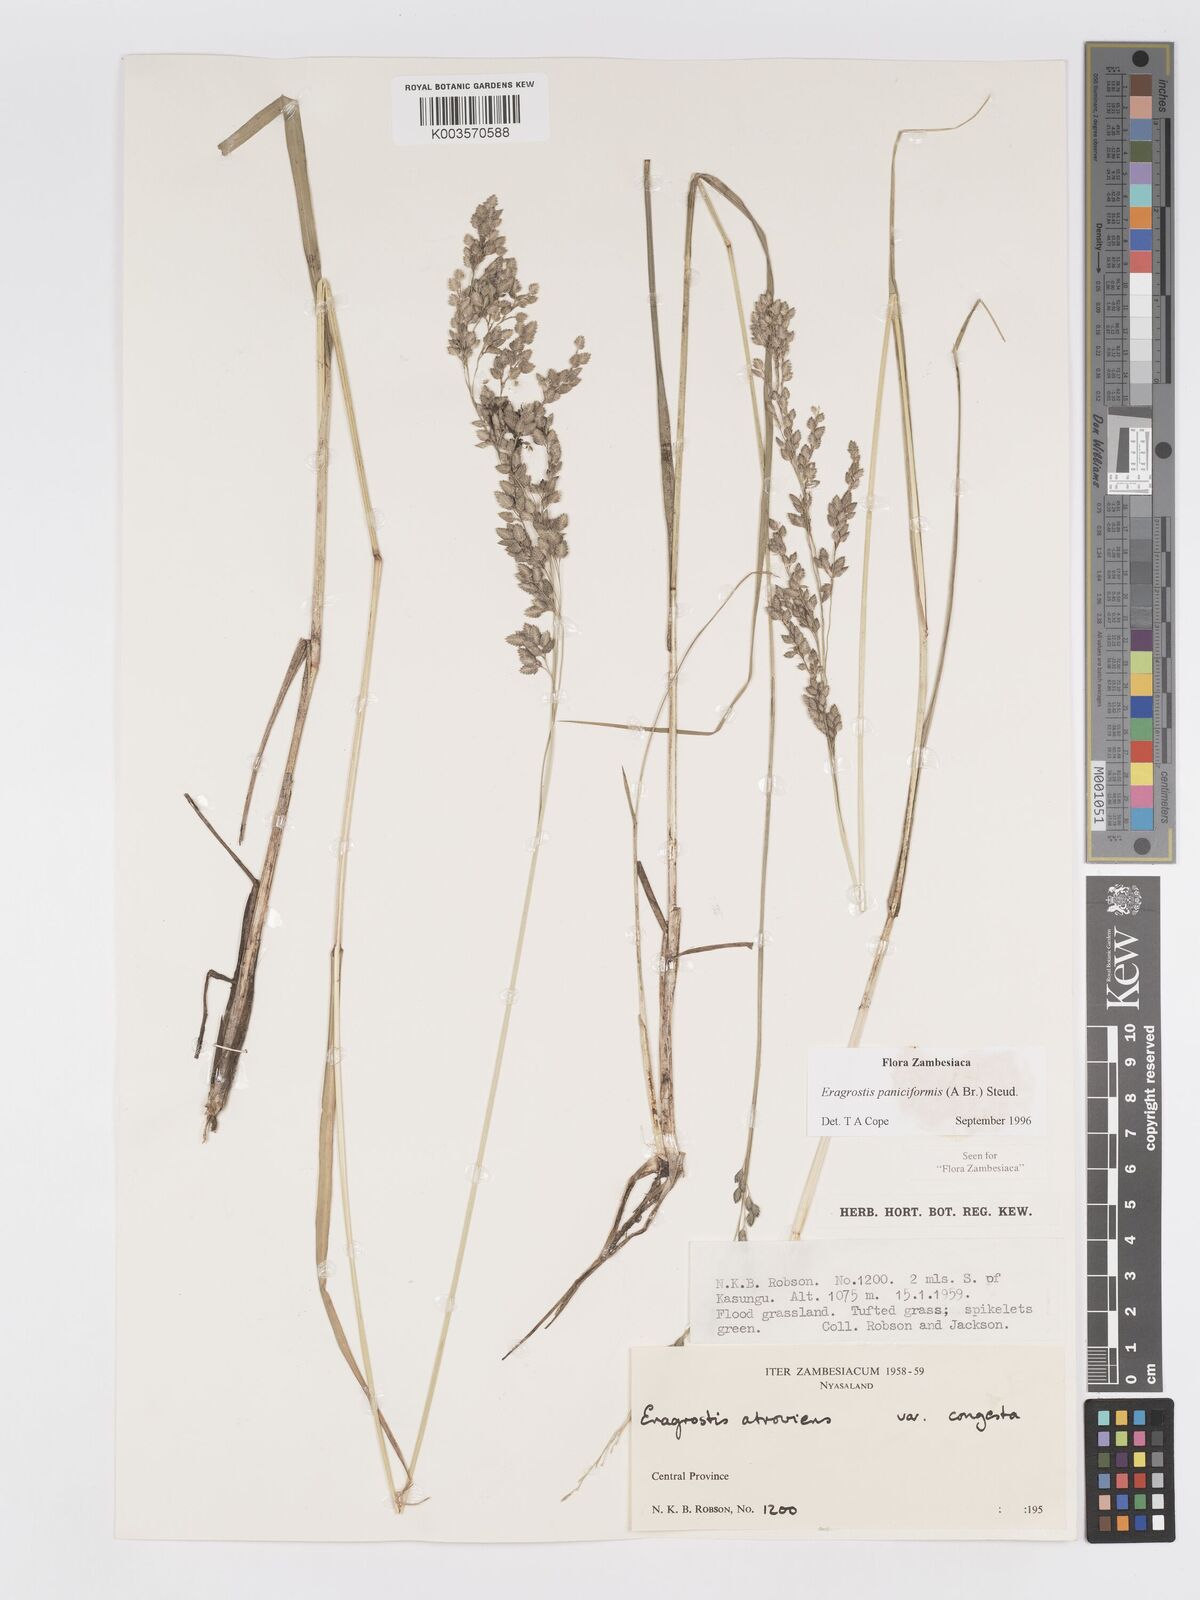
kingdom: Plantae
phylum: Tracheophyta
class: Liliopsida
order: Poales
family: Poaceae
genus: Eragrostis
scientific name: Eragrostis paniciformis
